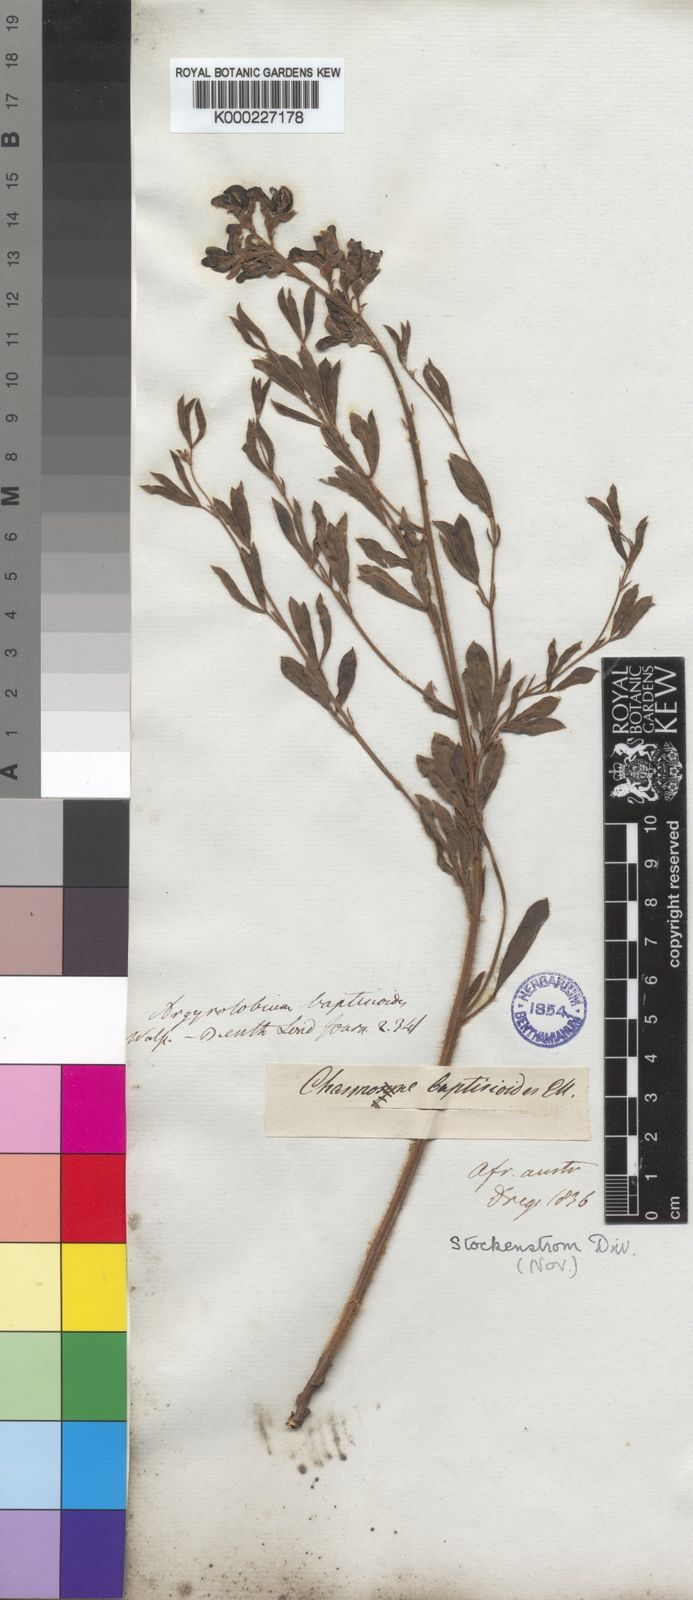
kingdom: Plantae
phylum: Tracheophyta
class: Magnoliopsida
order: Fabales
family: Fabaceae
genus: Argyrolobium
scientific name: Argyrolobium baptisioides
